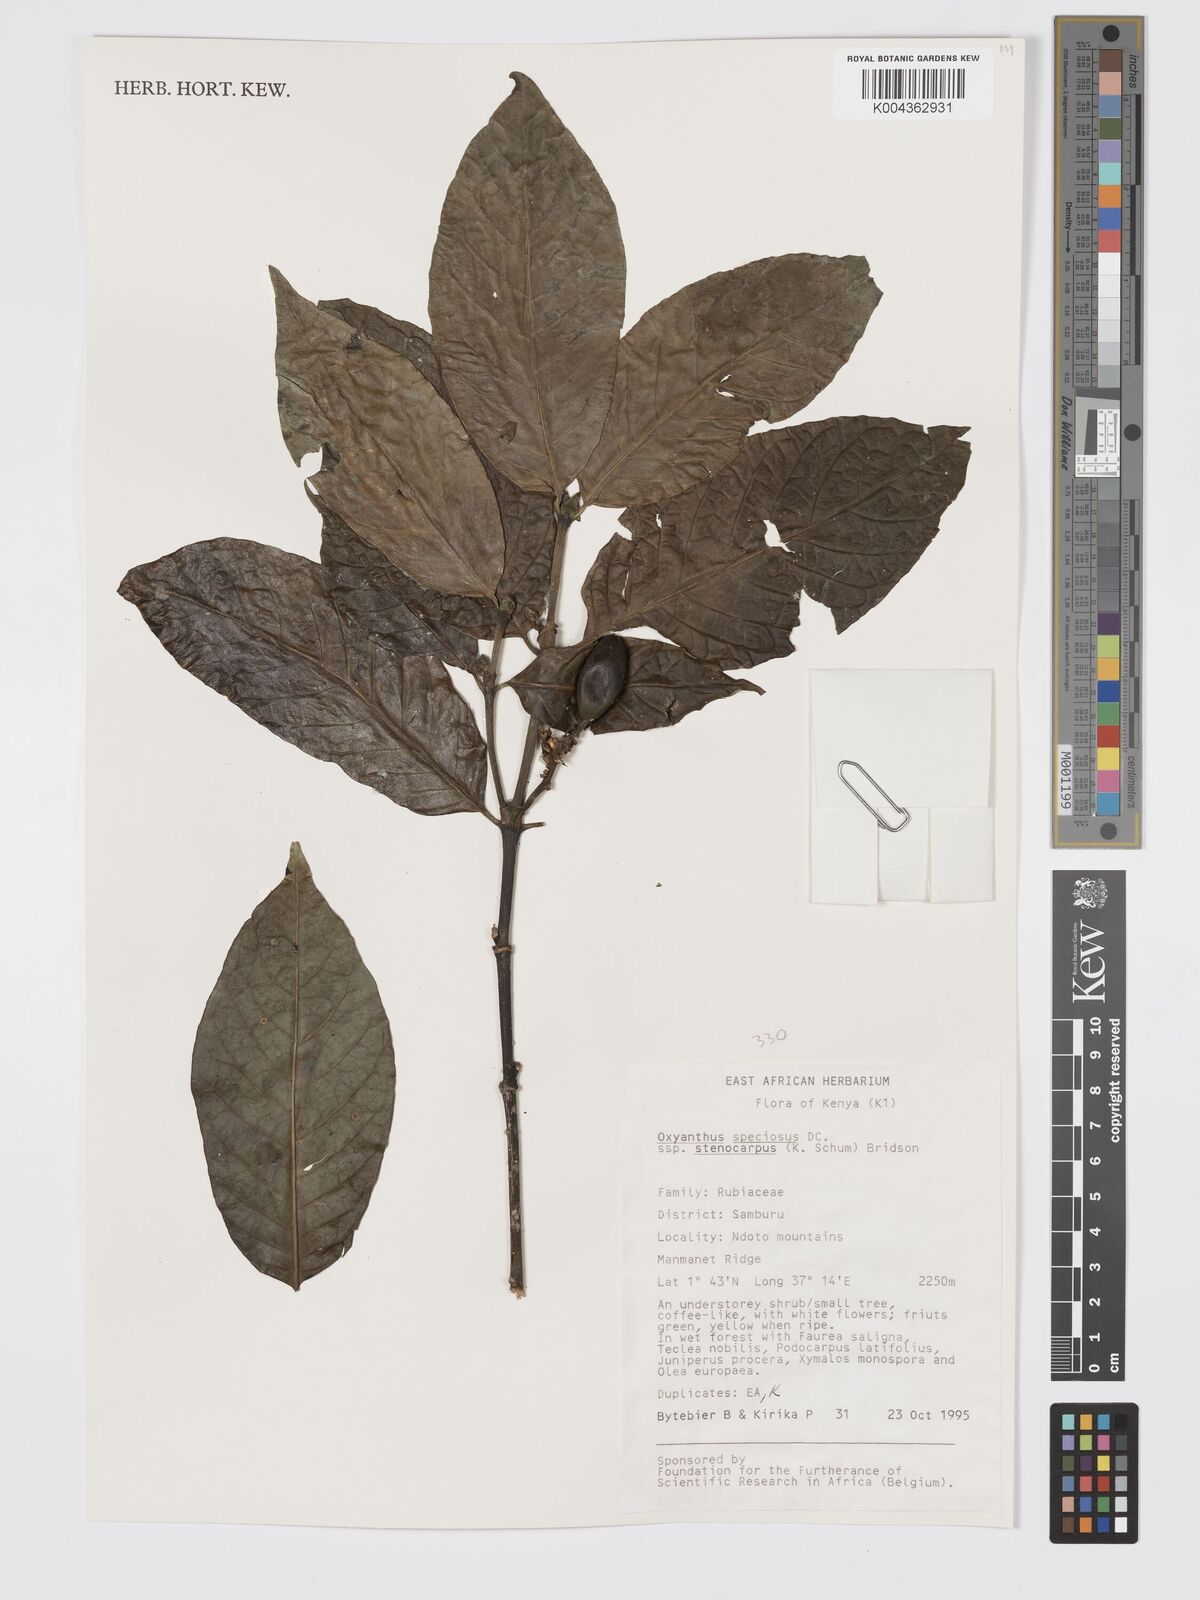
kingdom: Plantae
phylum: Tracheophyta
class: Magnoliopsida
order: Gentianales
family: Rubiaceae
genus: Oxyanthus
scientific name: Oxyanthus speciosus
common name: Whipstick loquat
